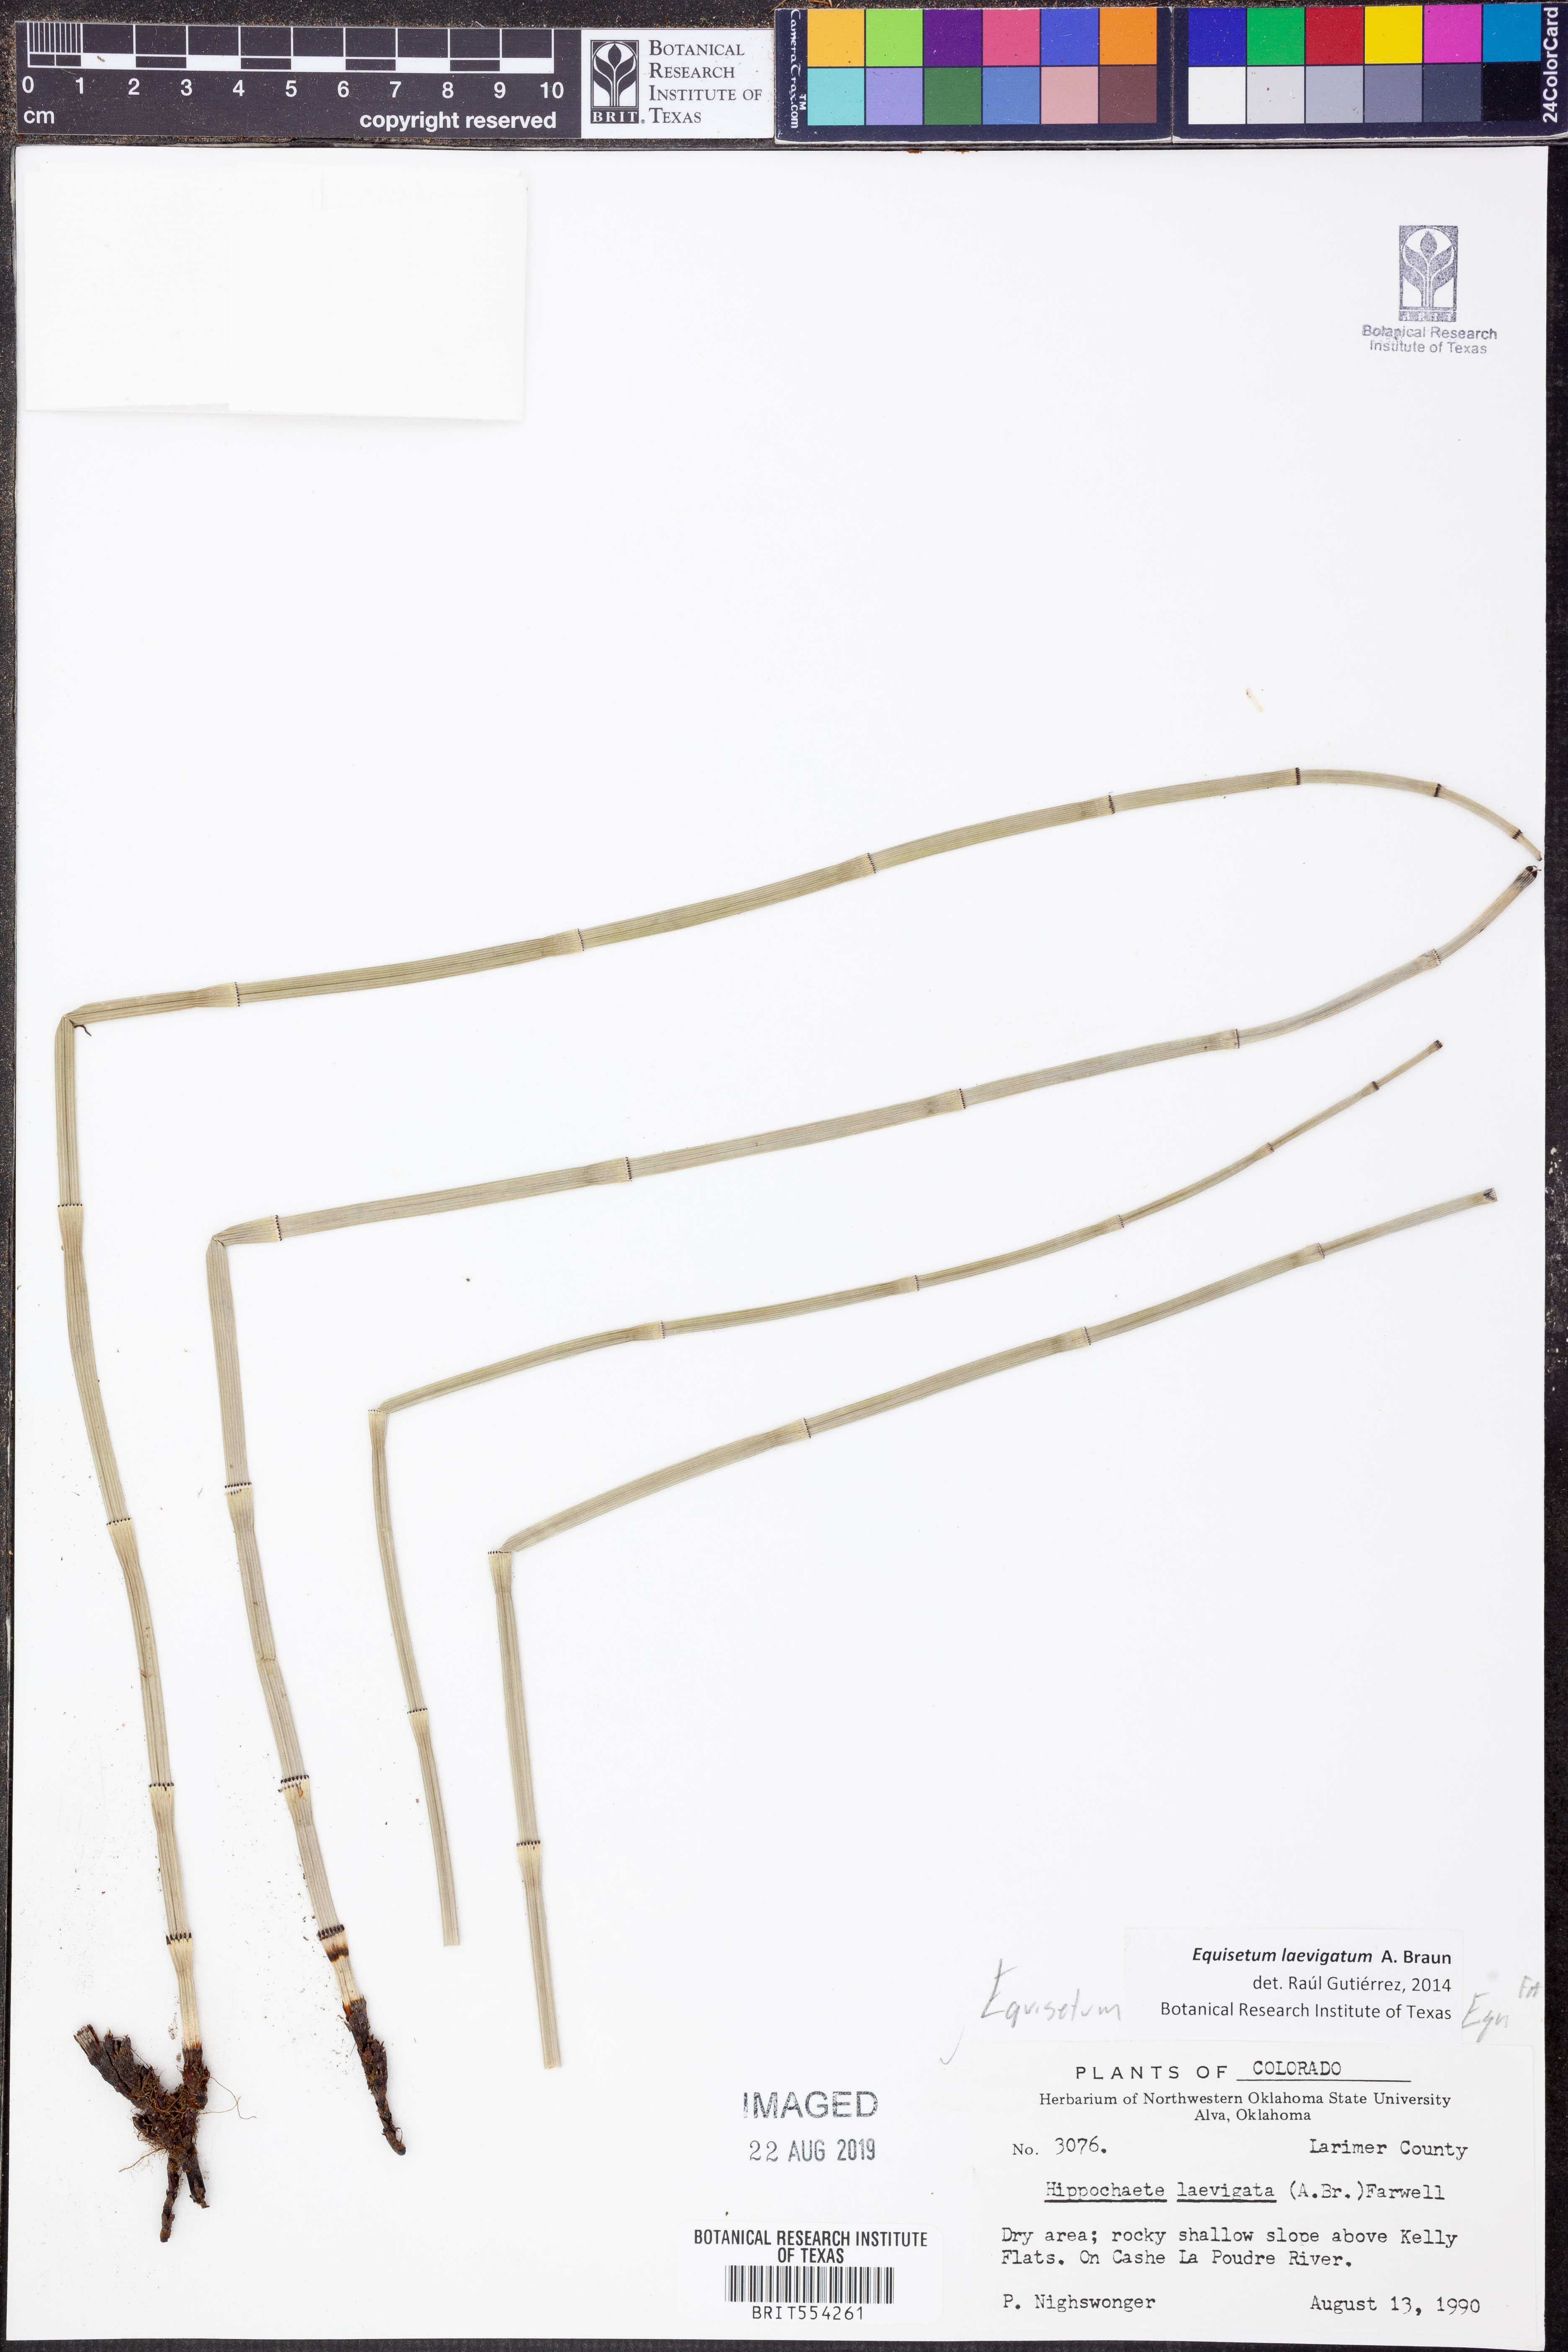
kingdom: Plantae
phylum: Tracheophyta
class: Polypodiopsida
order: Equisetales
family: Equisetaceae
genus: Equisetum
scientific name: Equisetum laevigatum
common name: Smooth scouring-rush
